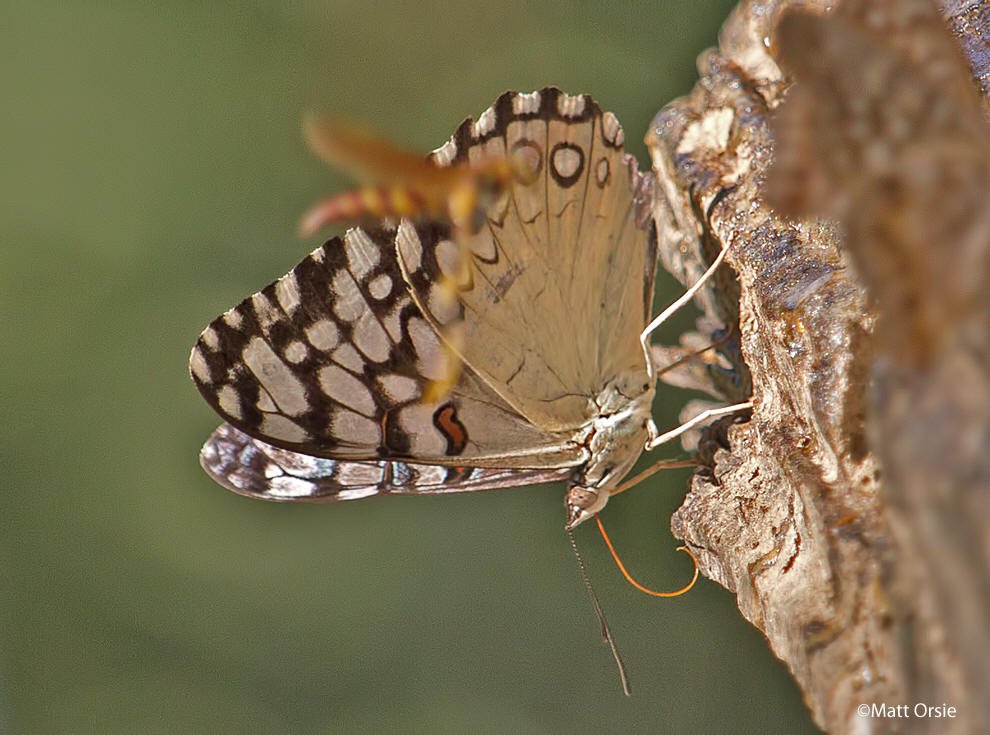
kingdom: Animalia
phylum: Arthropoda
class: Insecta
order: Lepidoptera
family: Nymphalidae
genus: Hamadryas
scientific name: Hamadryas guatemalena
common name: Guatemalan Cracker
